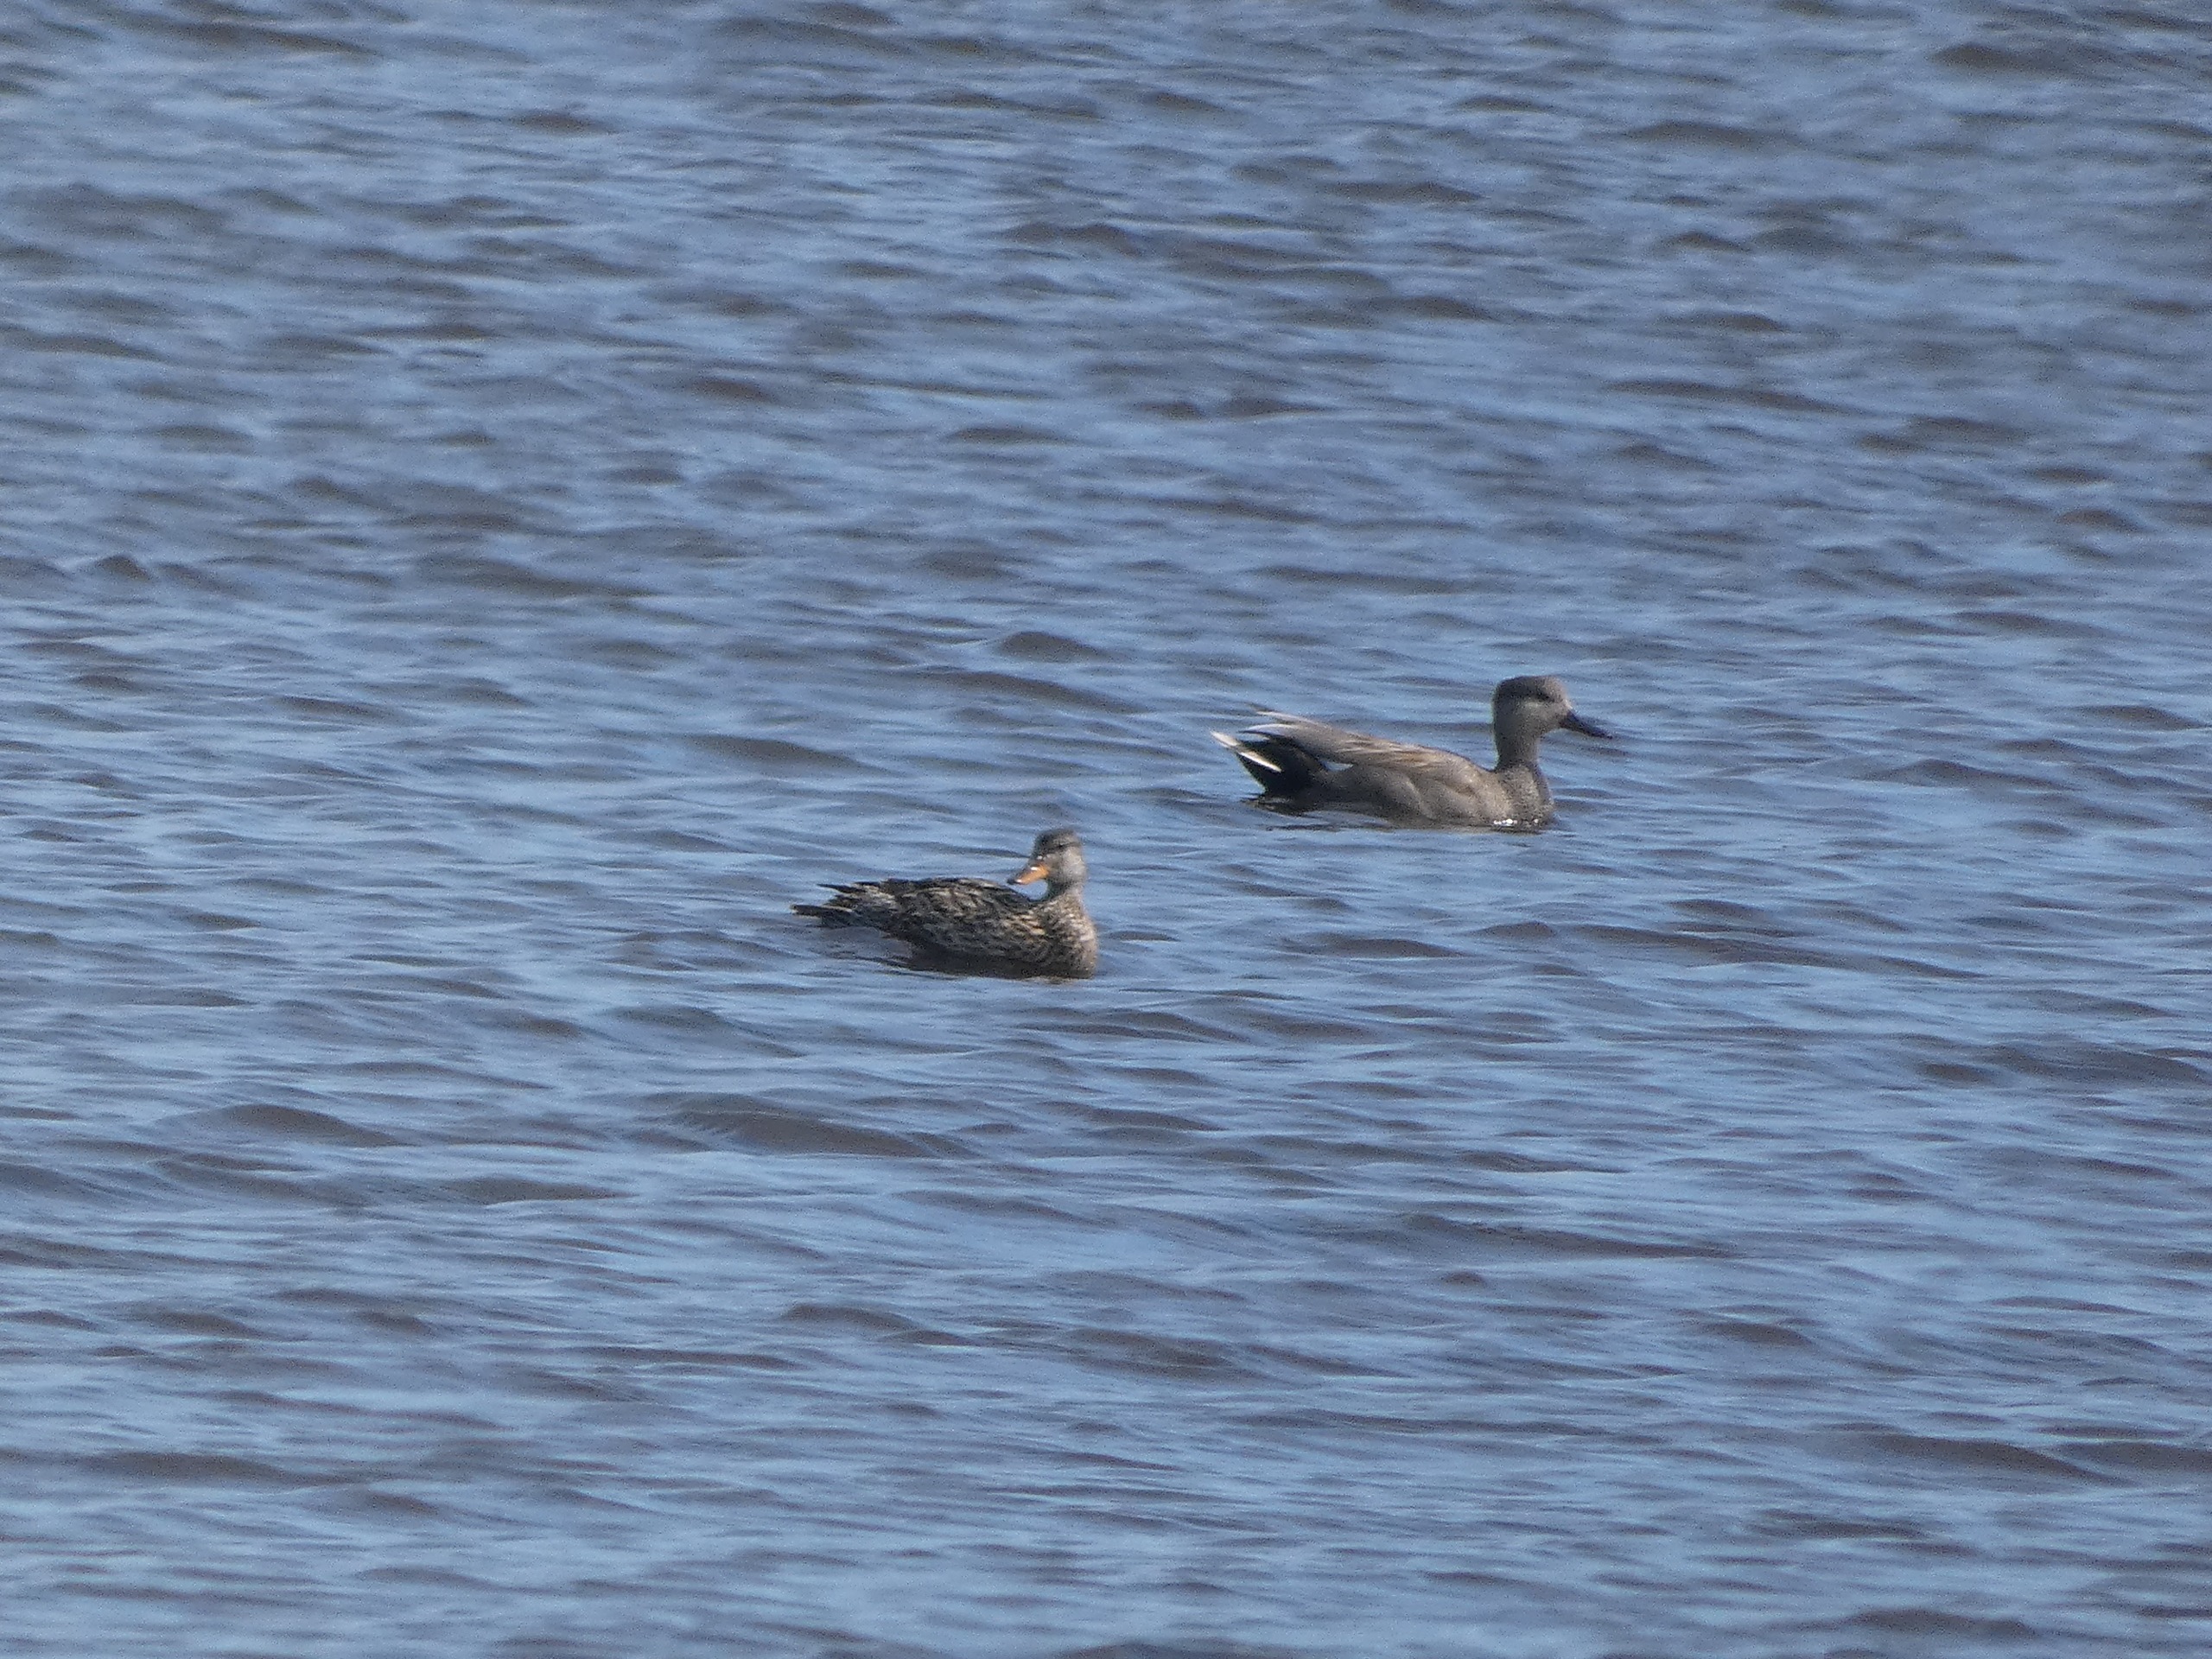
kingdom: Animalia
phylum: Chordata
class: Aves
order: Anseriformes
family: Anatidae
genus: Mareca
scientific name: Mareca strepera
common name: Knarand
